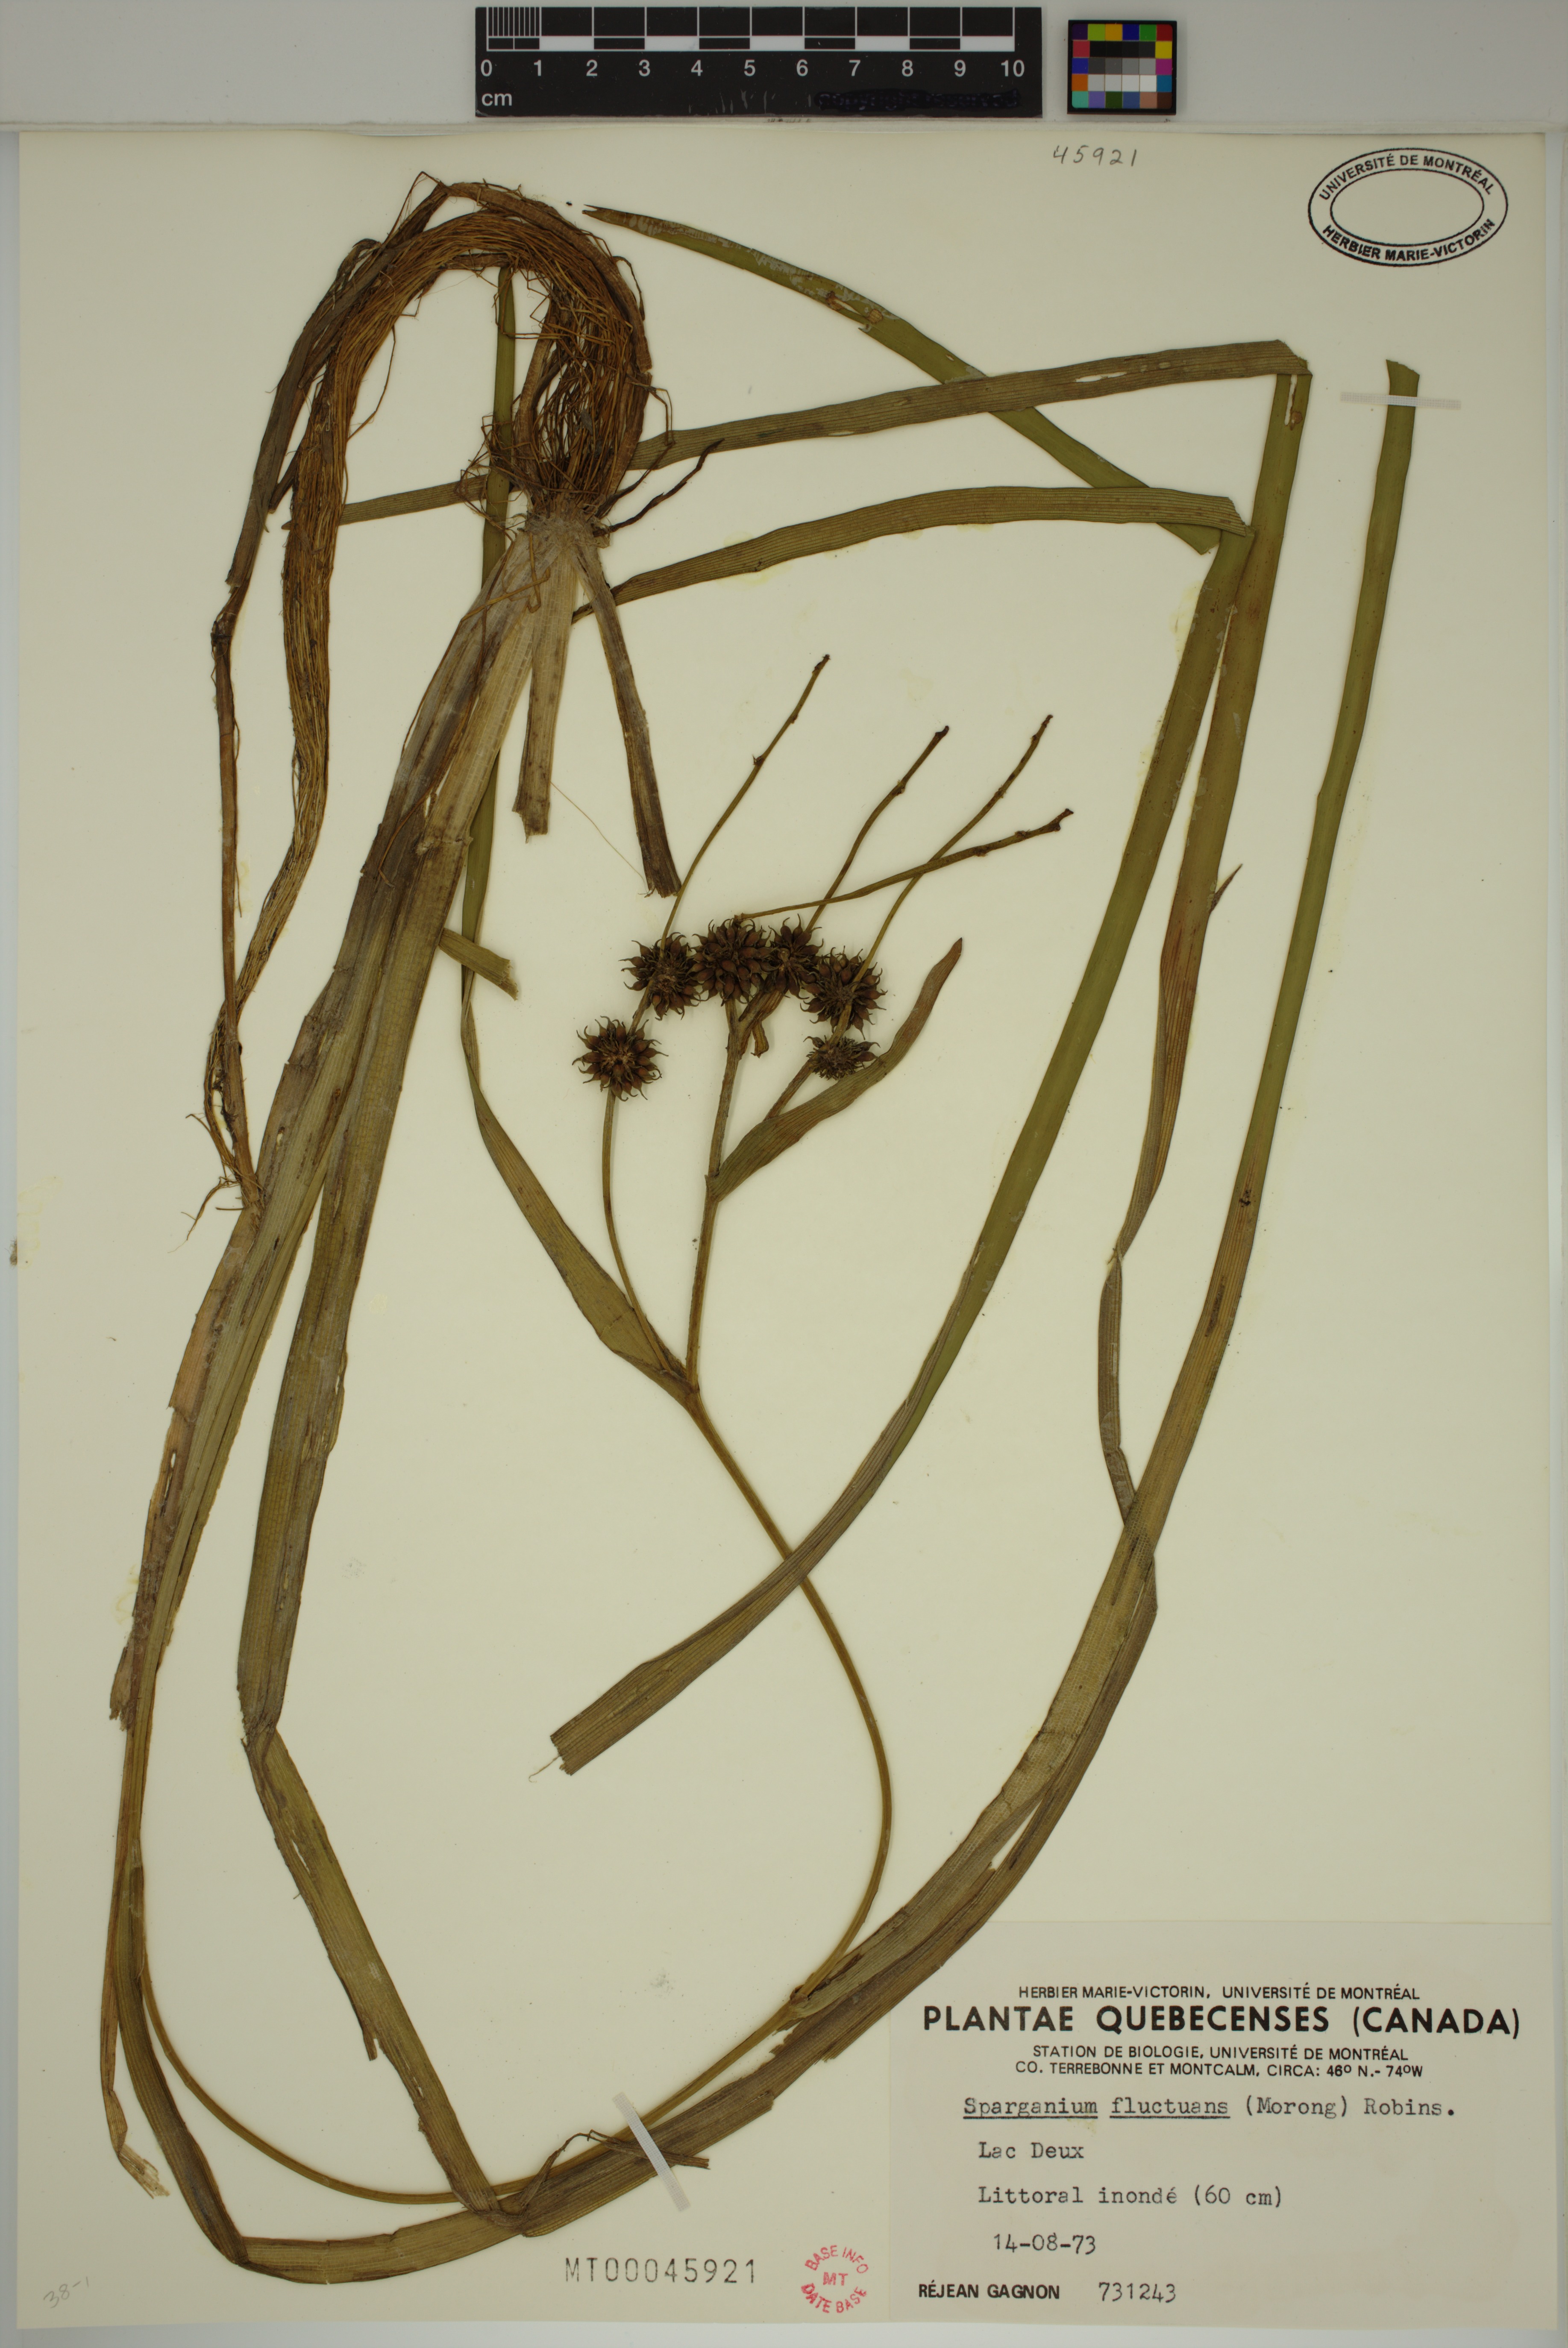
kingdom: Plantae
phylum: Tracheophyta
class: Liliopsida
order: Poales
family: Typhaceae
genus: Sparganium
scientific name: Sparganium fluctuans
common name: Floating burreed
